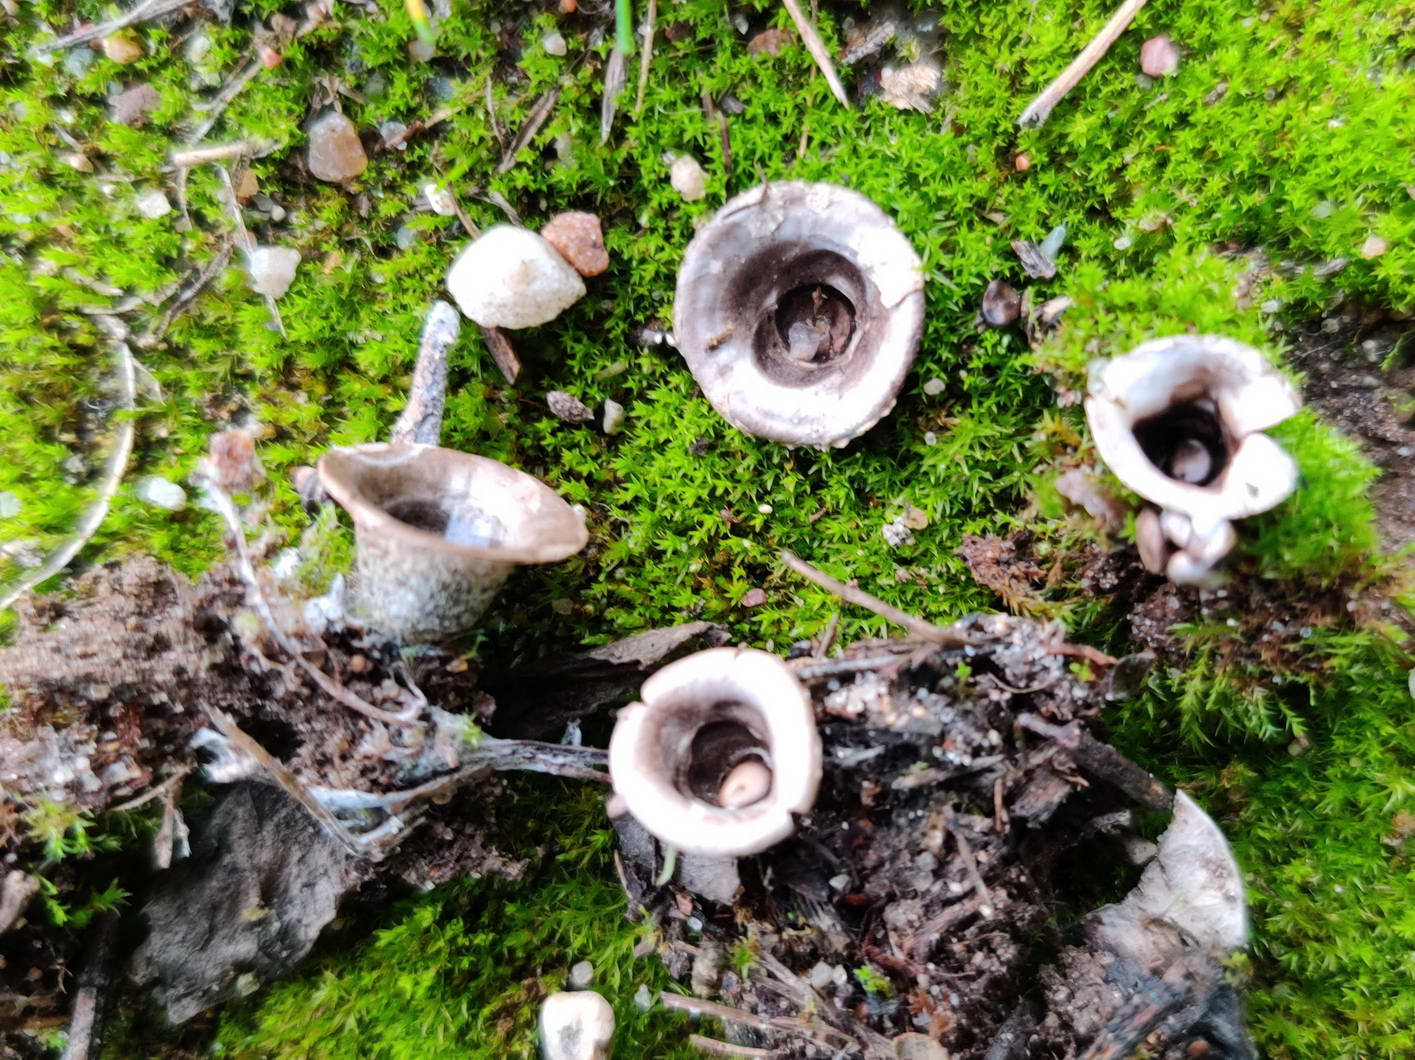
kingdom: Fungi
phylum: Basidiomycota
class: Agaricomycetes
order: Agaricales
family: Agaricaceae
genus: Cyathus
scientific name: Cyathus olla
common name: klokke-redesvamp
